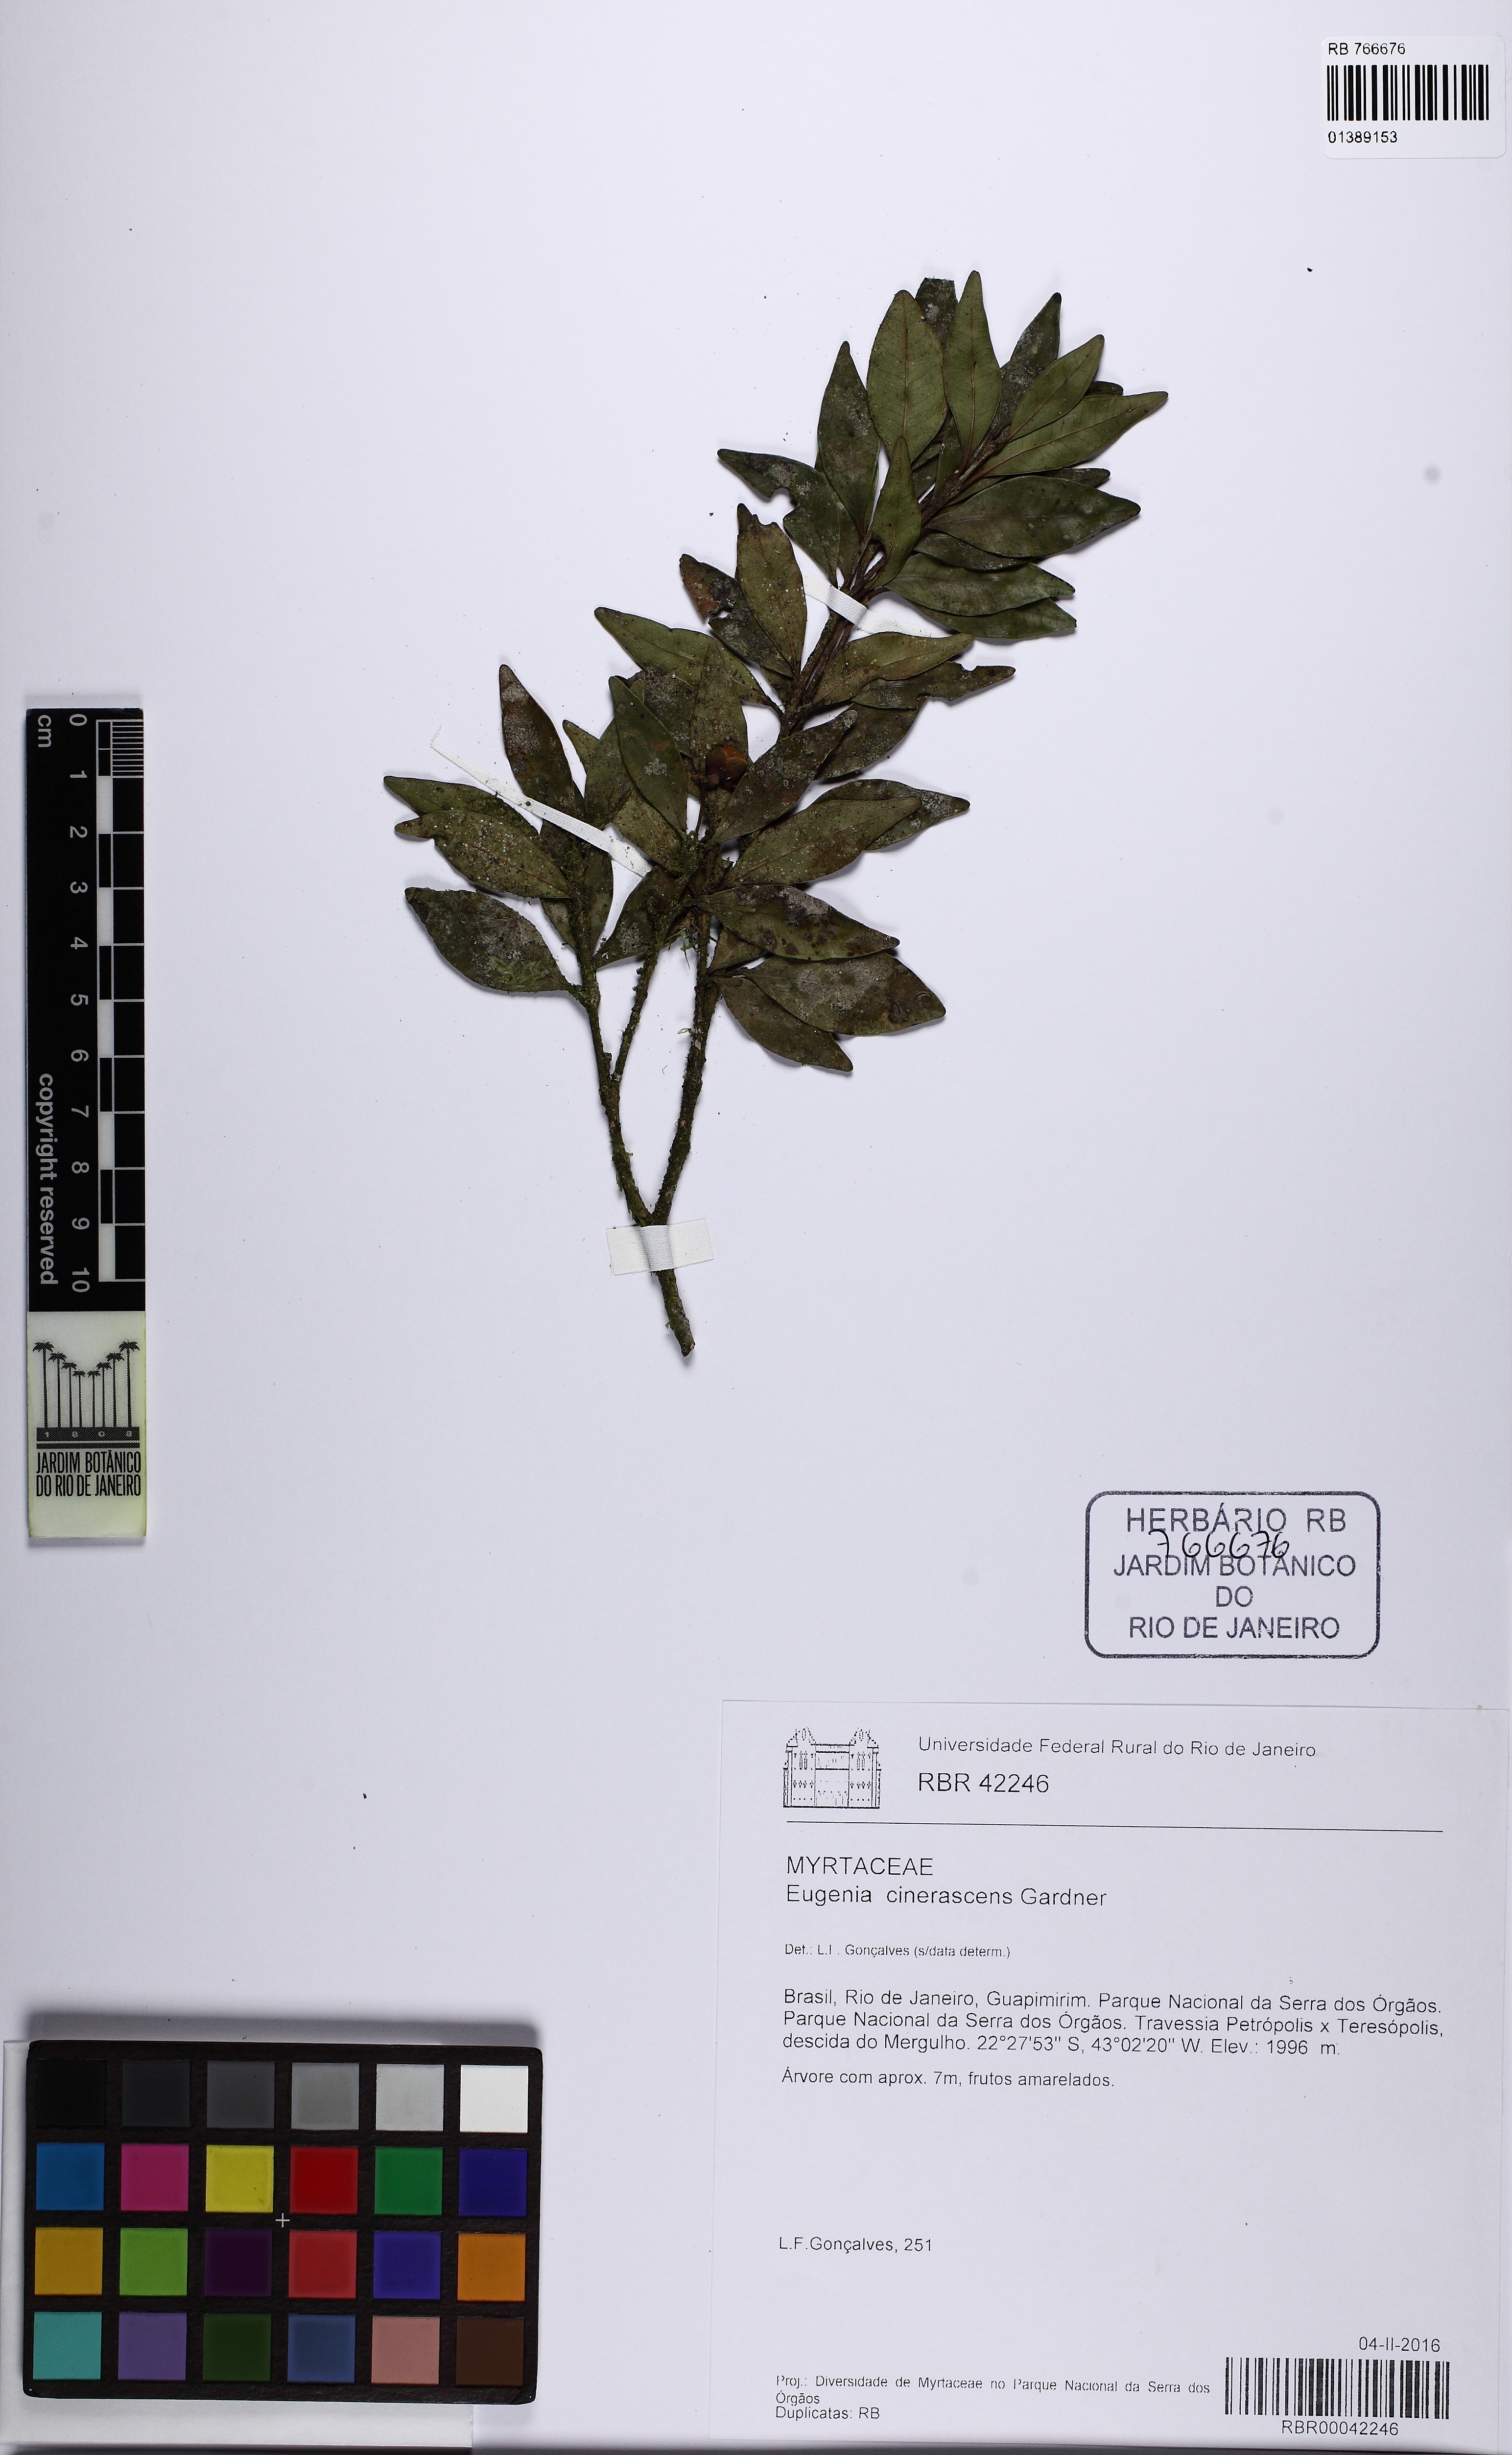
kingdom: Plantae
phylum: Tracheophyta
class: Magnoliopsida
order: Myrtales
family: Myrtaceae
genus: Eugenia
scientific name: Eugenia cinerascens
